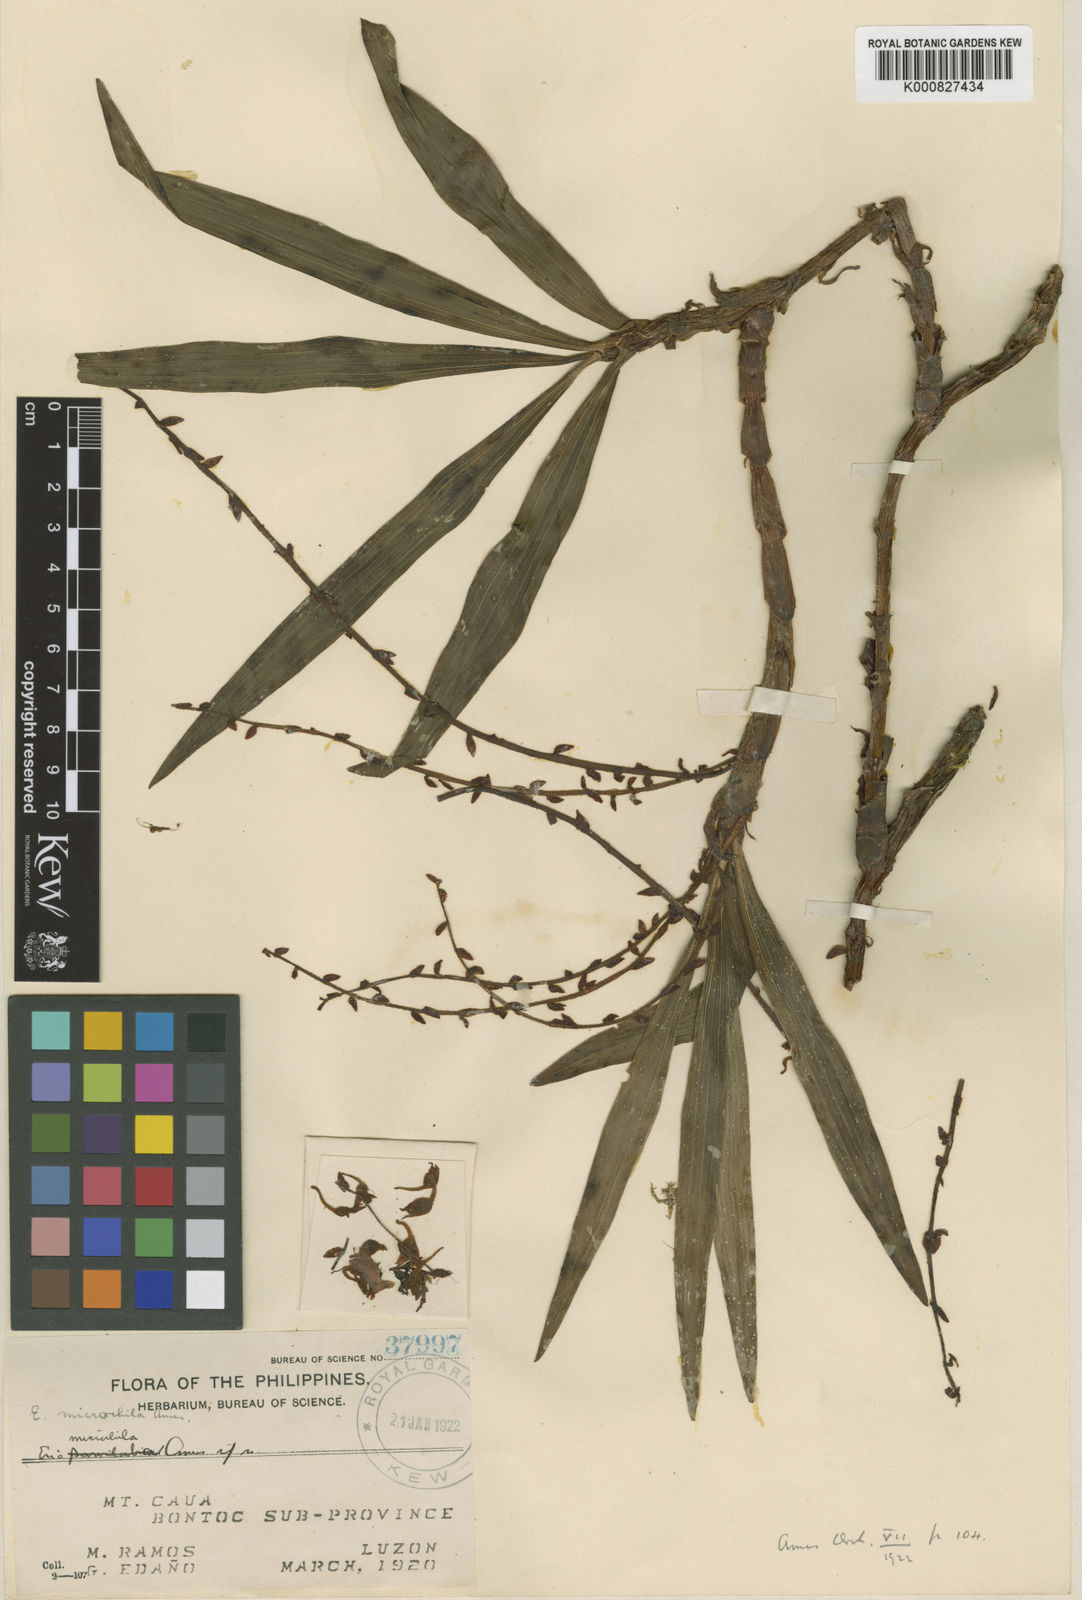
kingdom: Plantae
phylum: Tracheophyta
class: Liliopsida
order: Asparagales
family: Orchidaceae
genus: Pinalia
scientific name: Pinalia microchila
